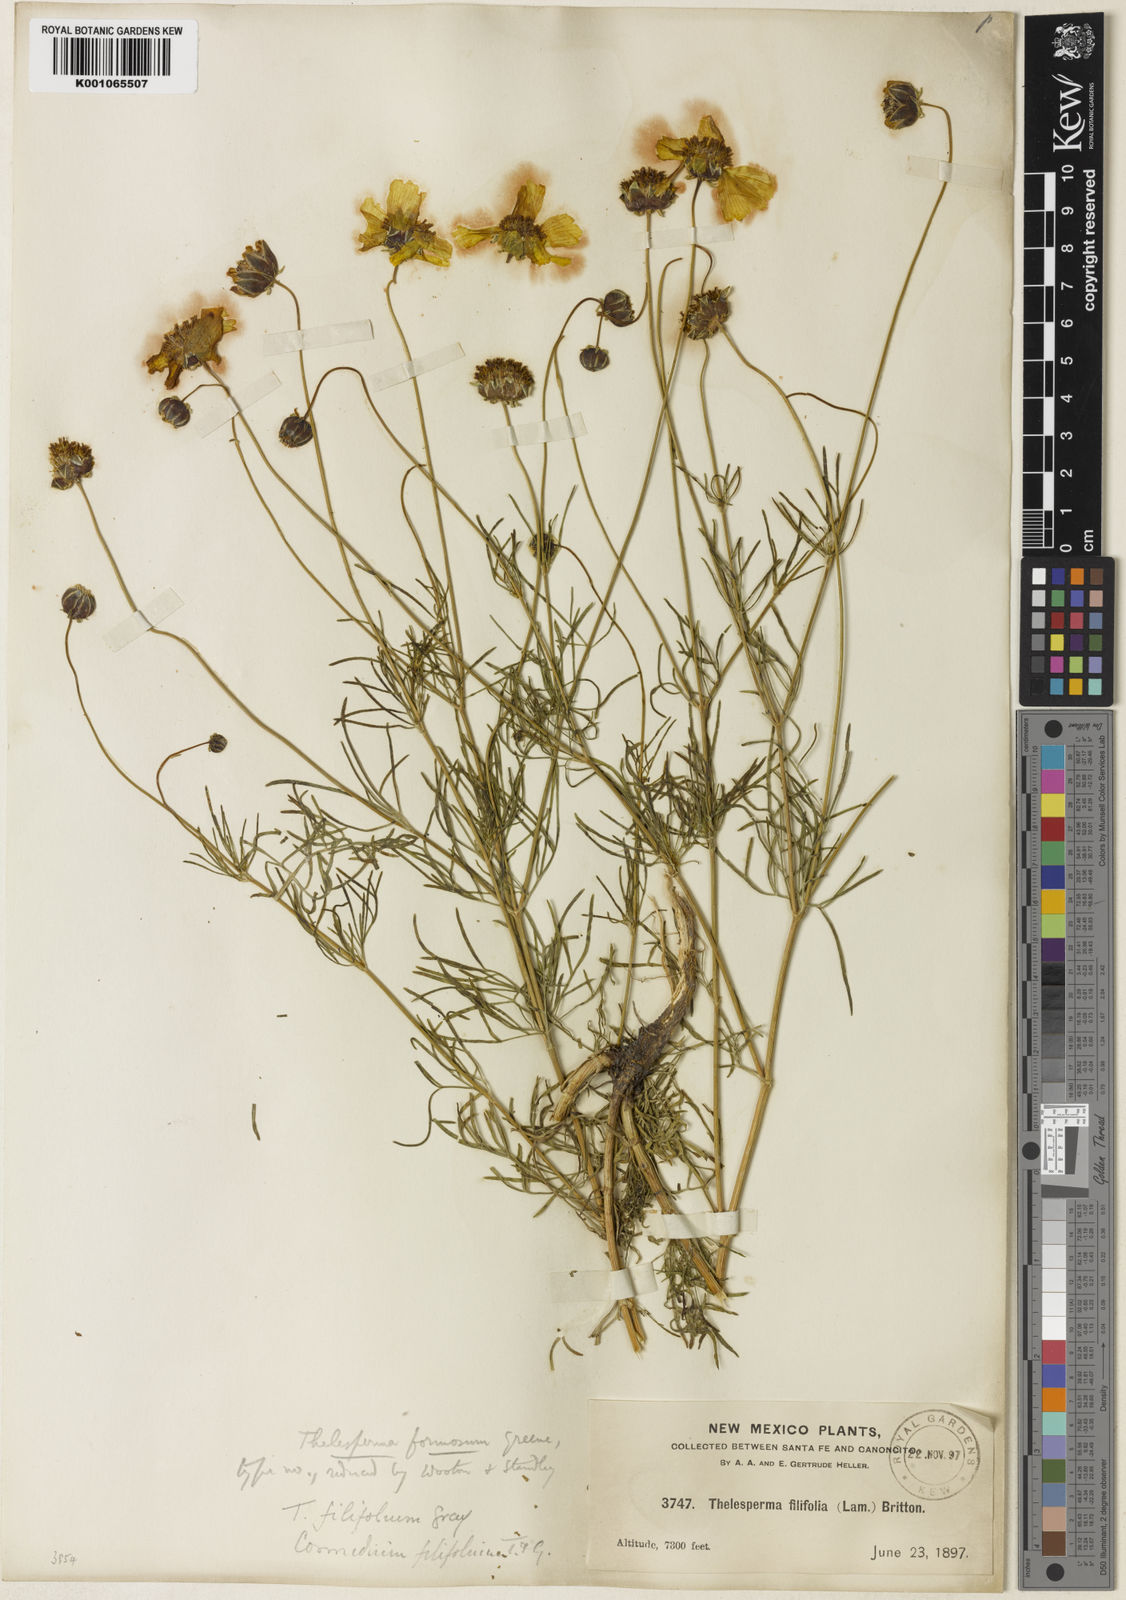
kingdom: Plantae
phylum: Tracheophyta
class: Magnoliopsida
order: Asterales
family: Asteraceae
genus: Thelesperma
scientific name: Thelesperma filifolium
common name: Stiff greenthread
